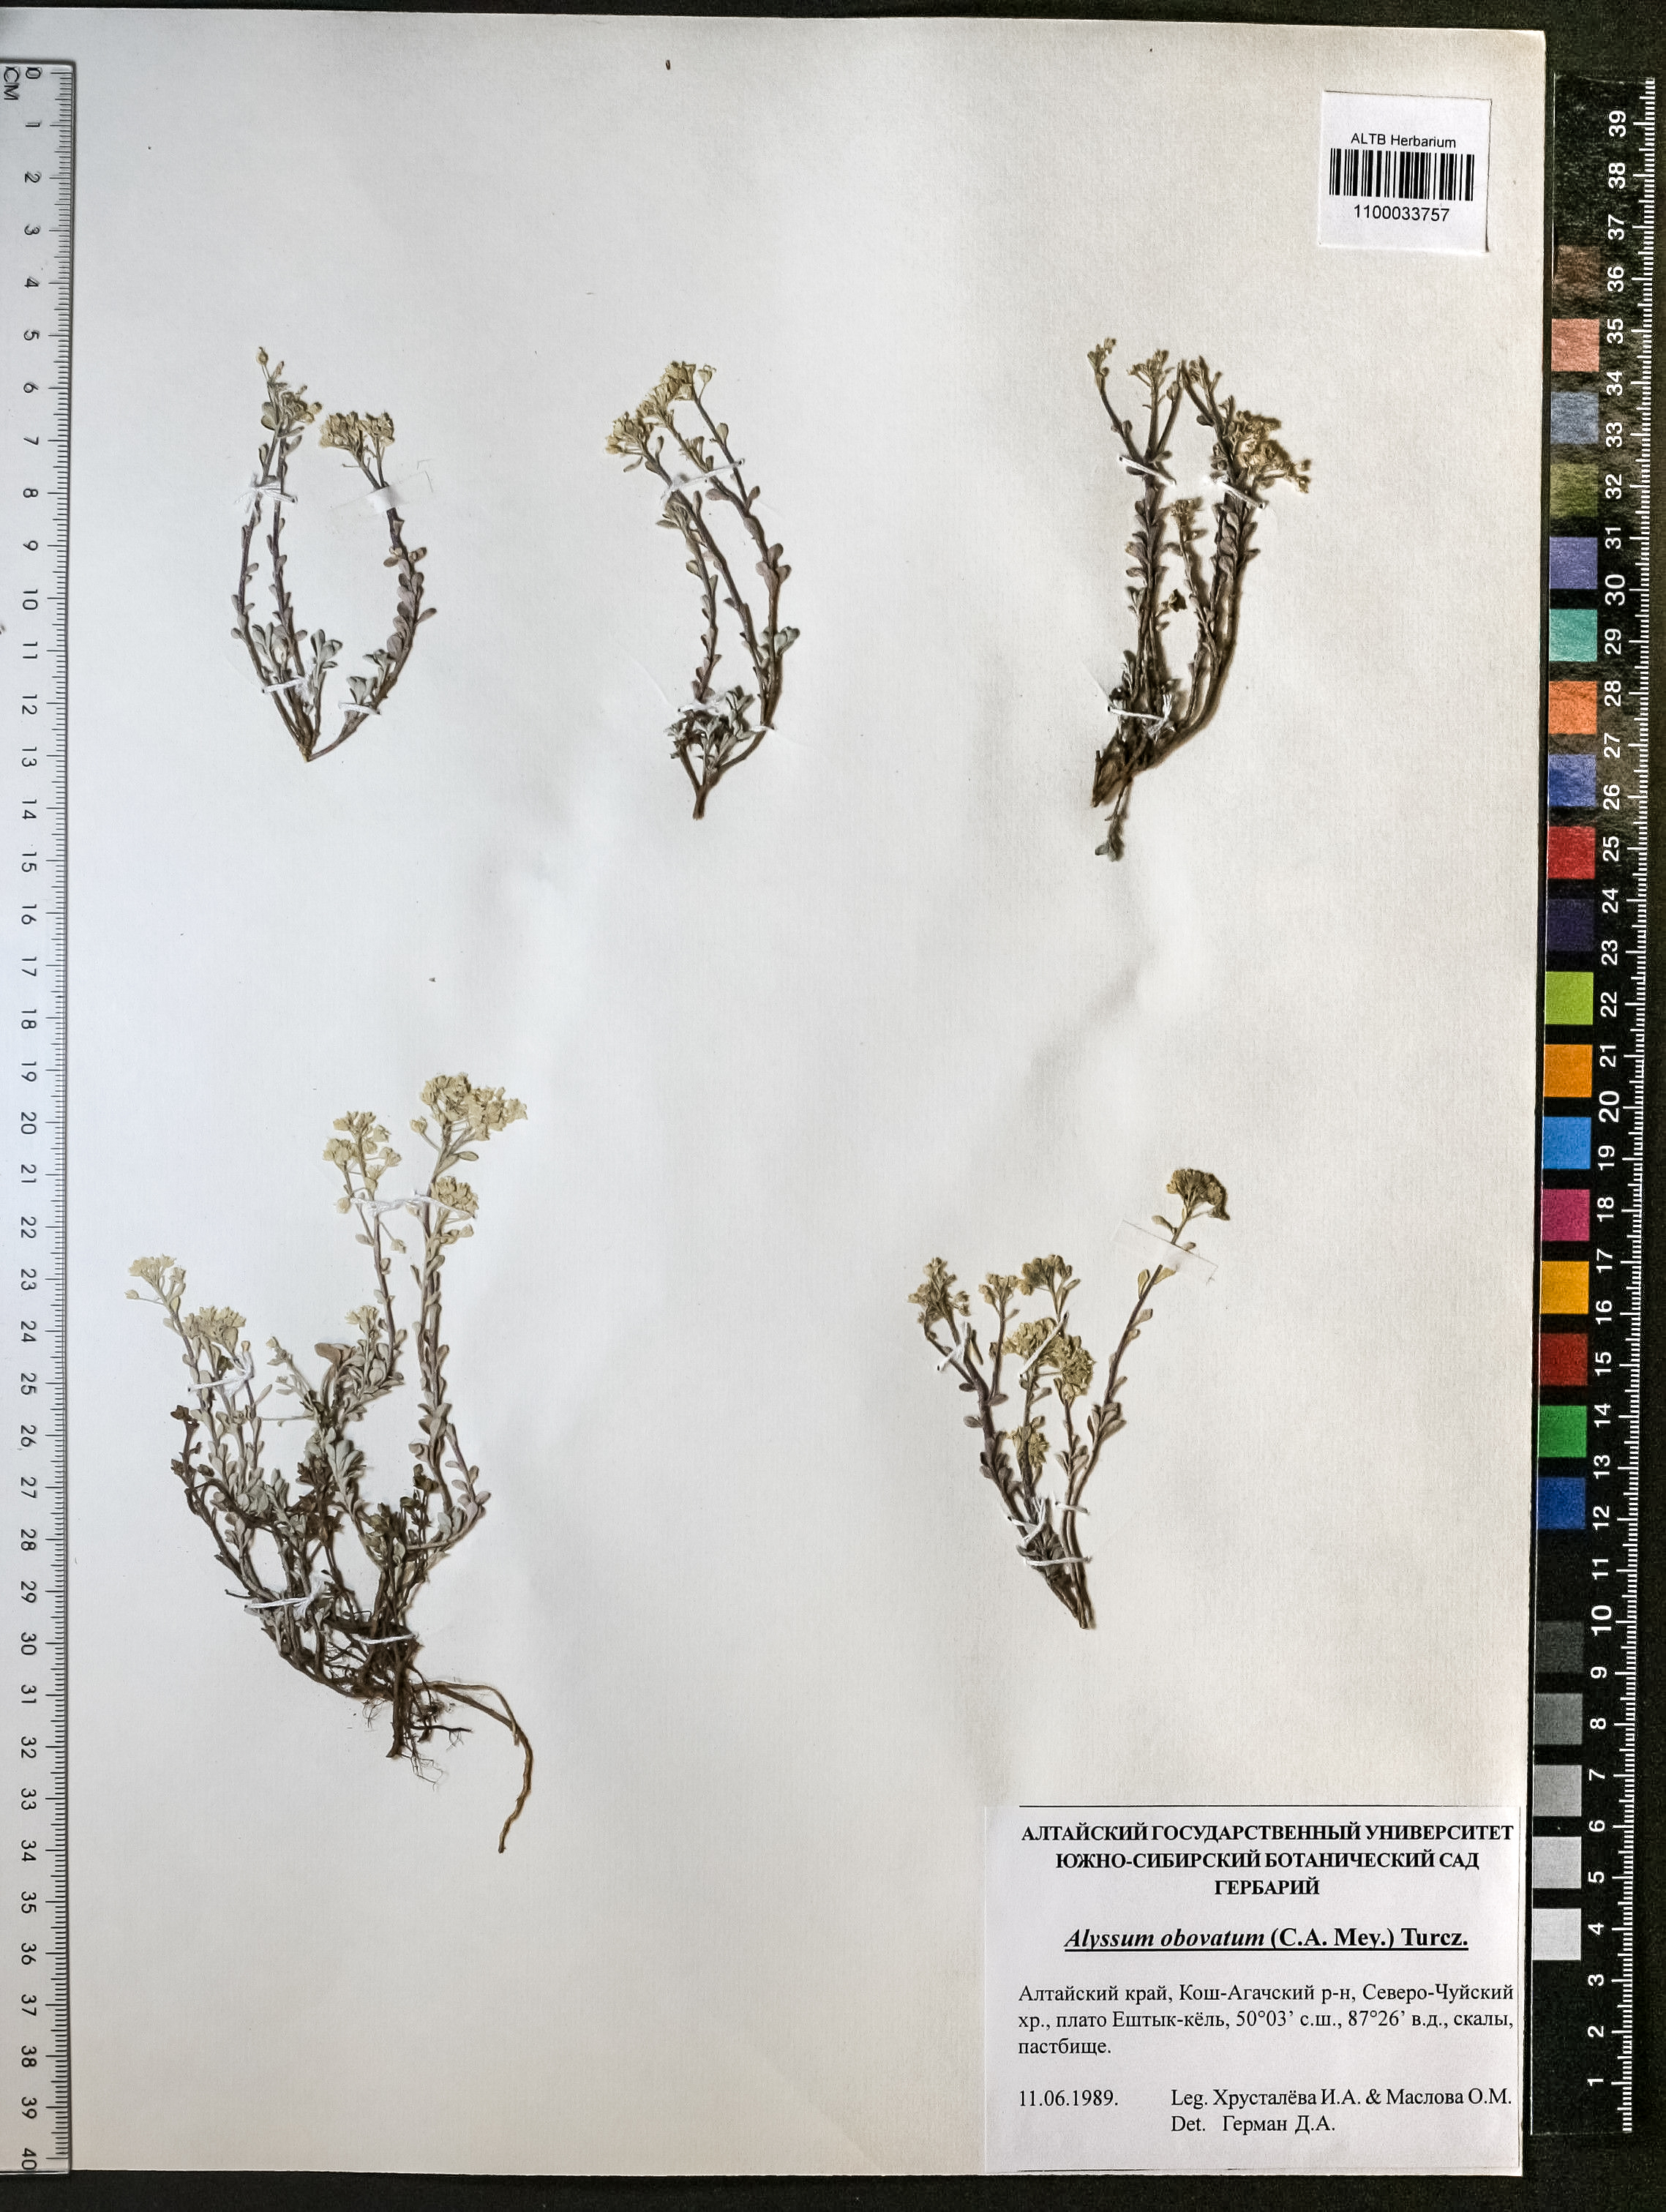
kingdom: Plantae
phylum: Tracheophyta
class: Magnoliopsida
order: Brassicales
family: Brassicaceae
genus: Odontarrhena
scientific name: Odontarrhena obovata
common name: American alyssum
